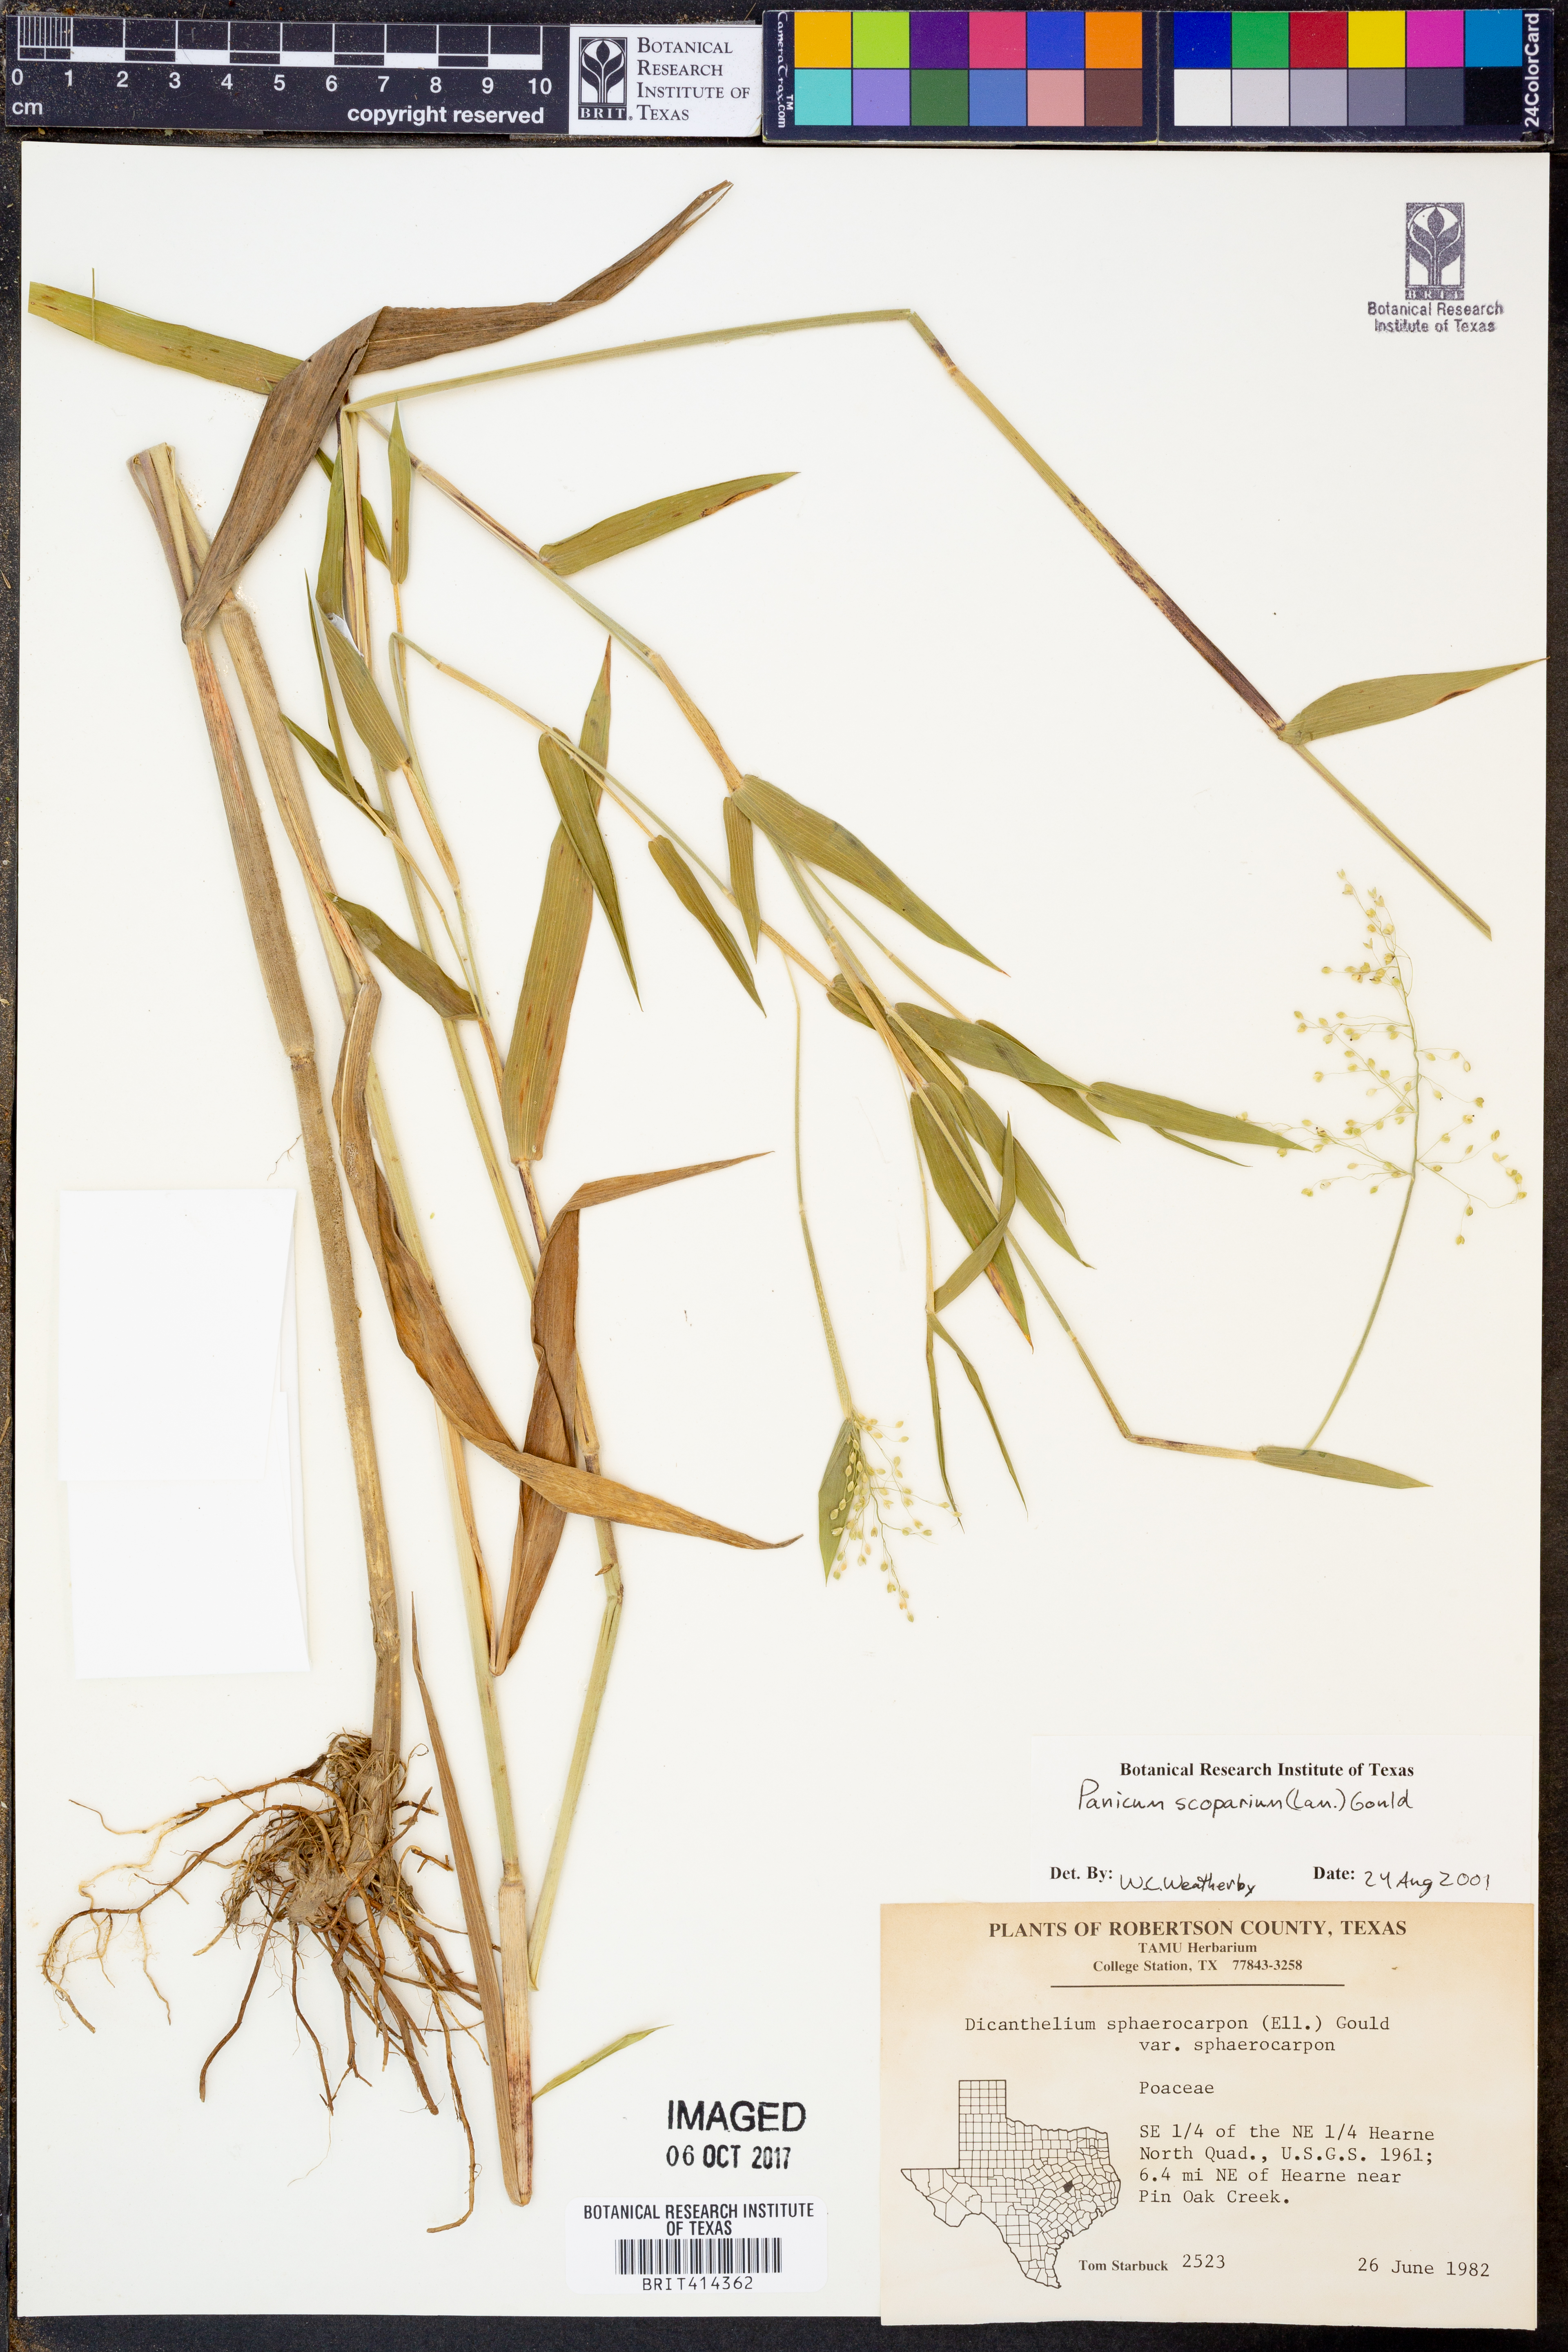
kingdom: Plantae
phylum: Tracheophyta
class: Liliopsida
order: Poales
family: Poaceae
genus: Dichanthelium
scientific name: Dichanthelium scribnerianum
